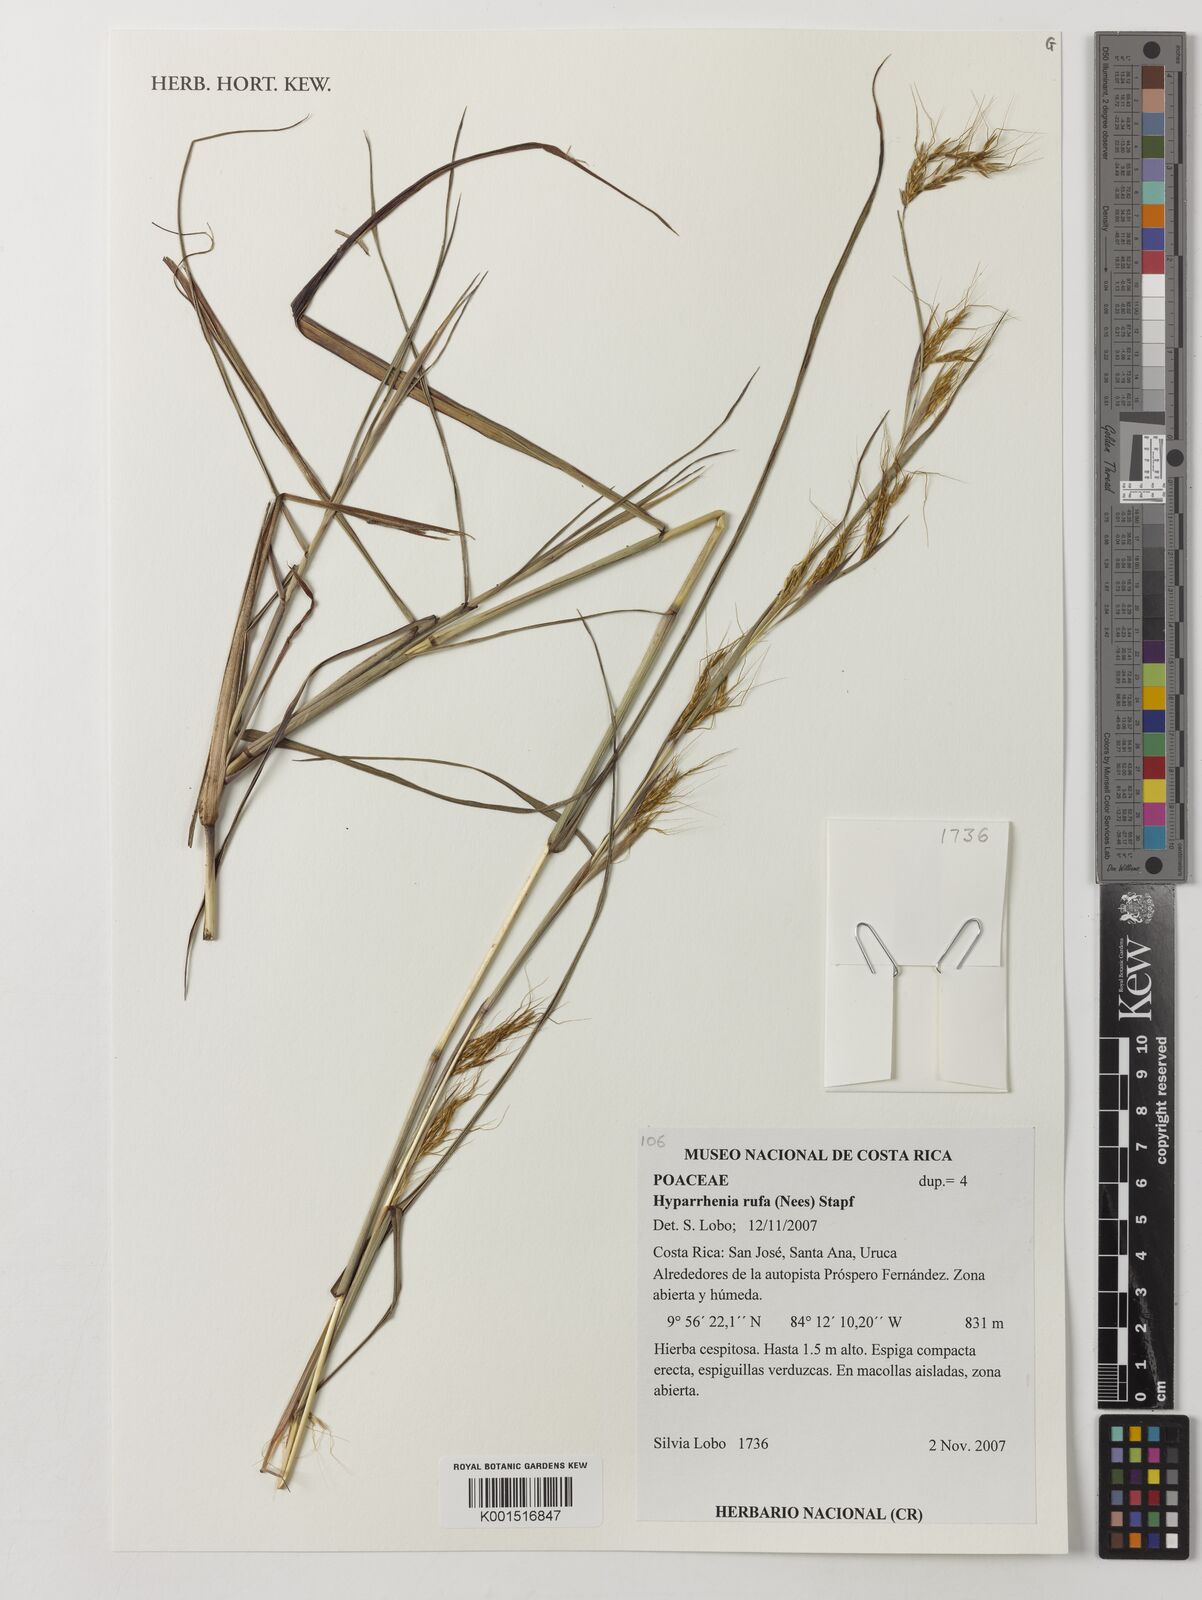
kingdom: Plantae
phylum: Tracheophyta
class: Liliopsida
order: Poales
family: Poaceae
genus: Hyparrhenia
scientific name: Hyparrhenia rufa
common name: Jaraguagrass
